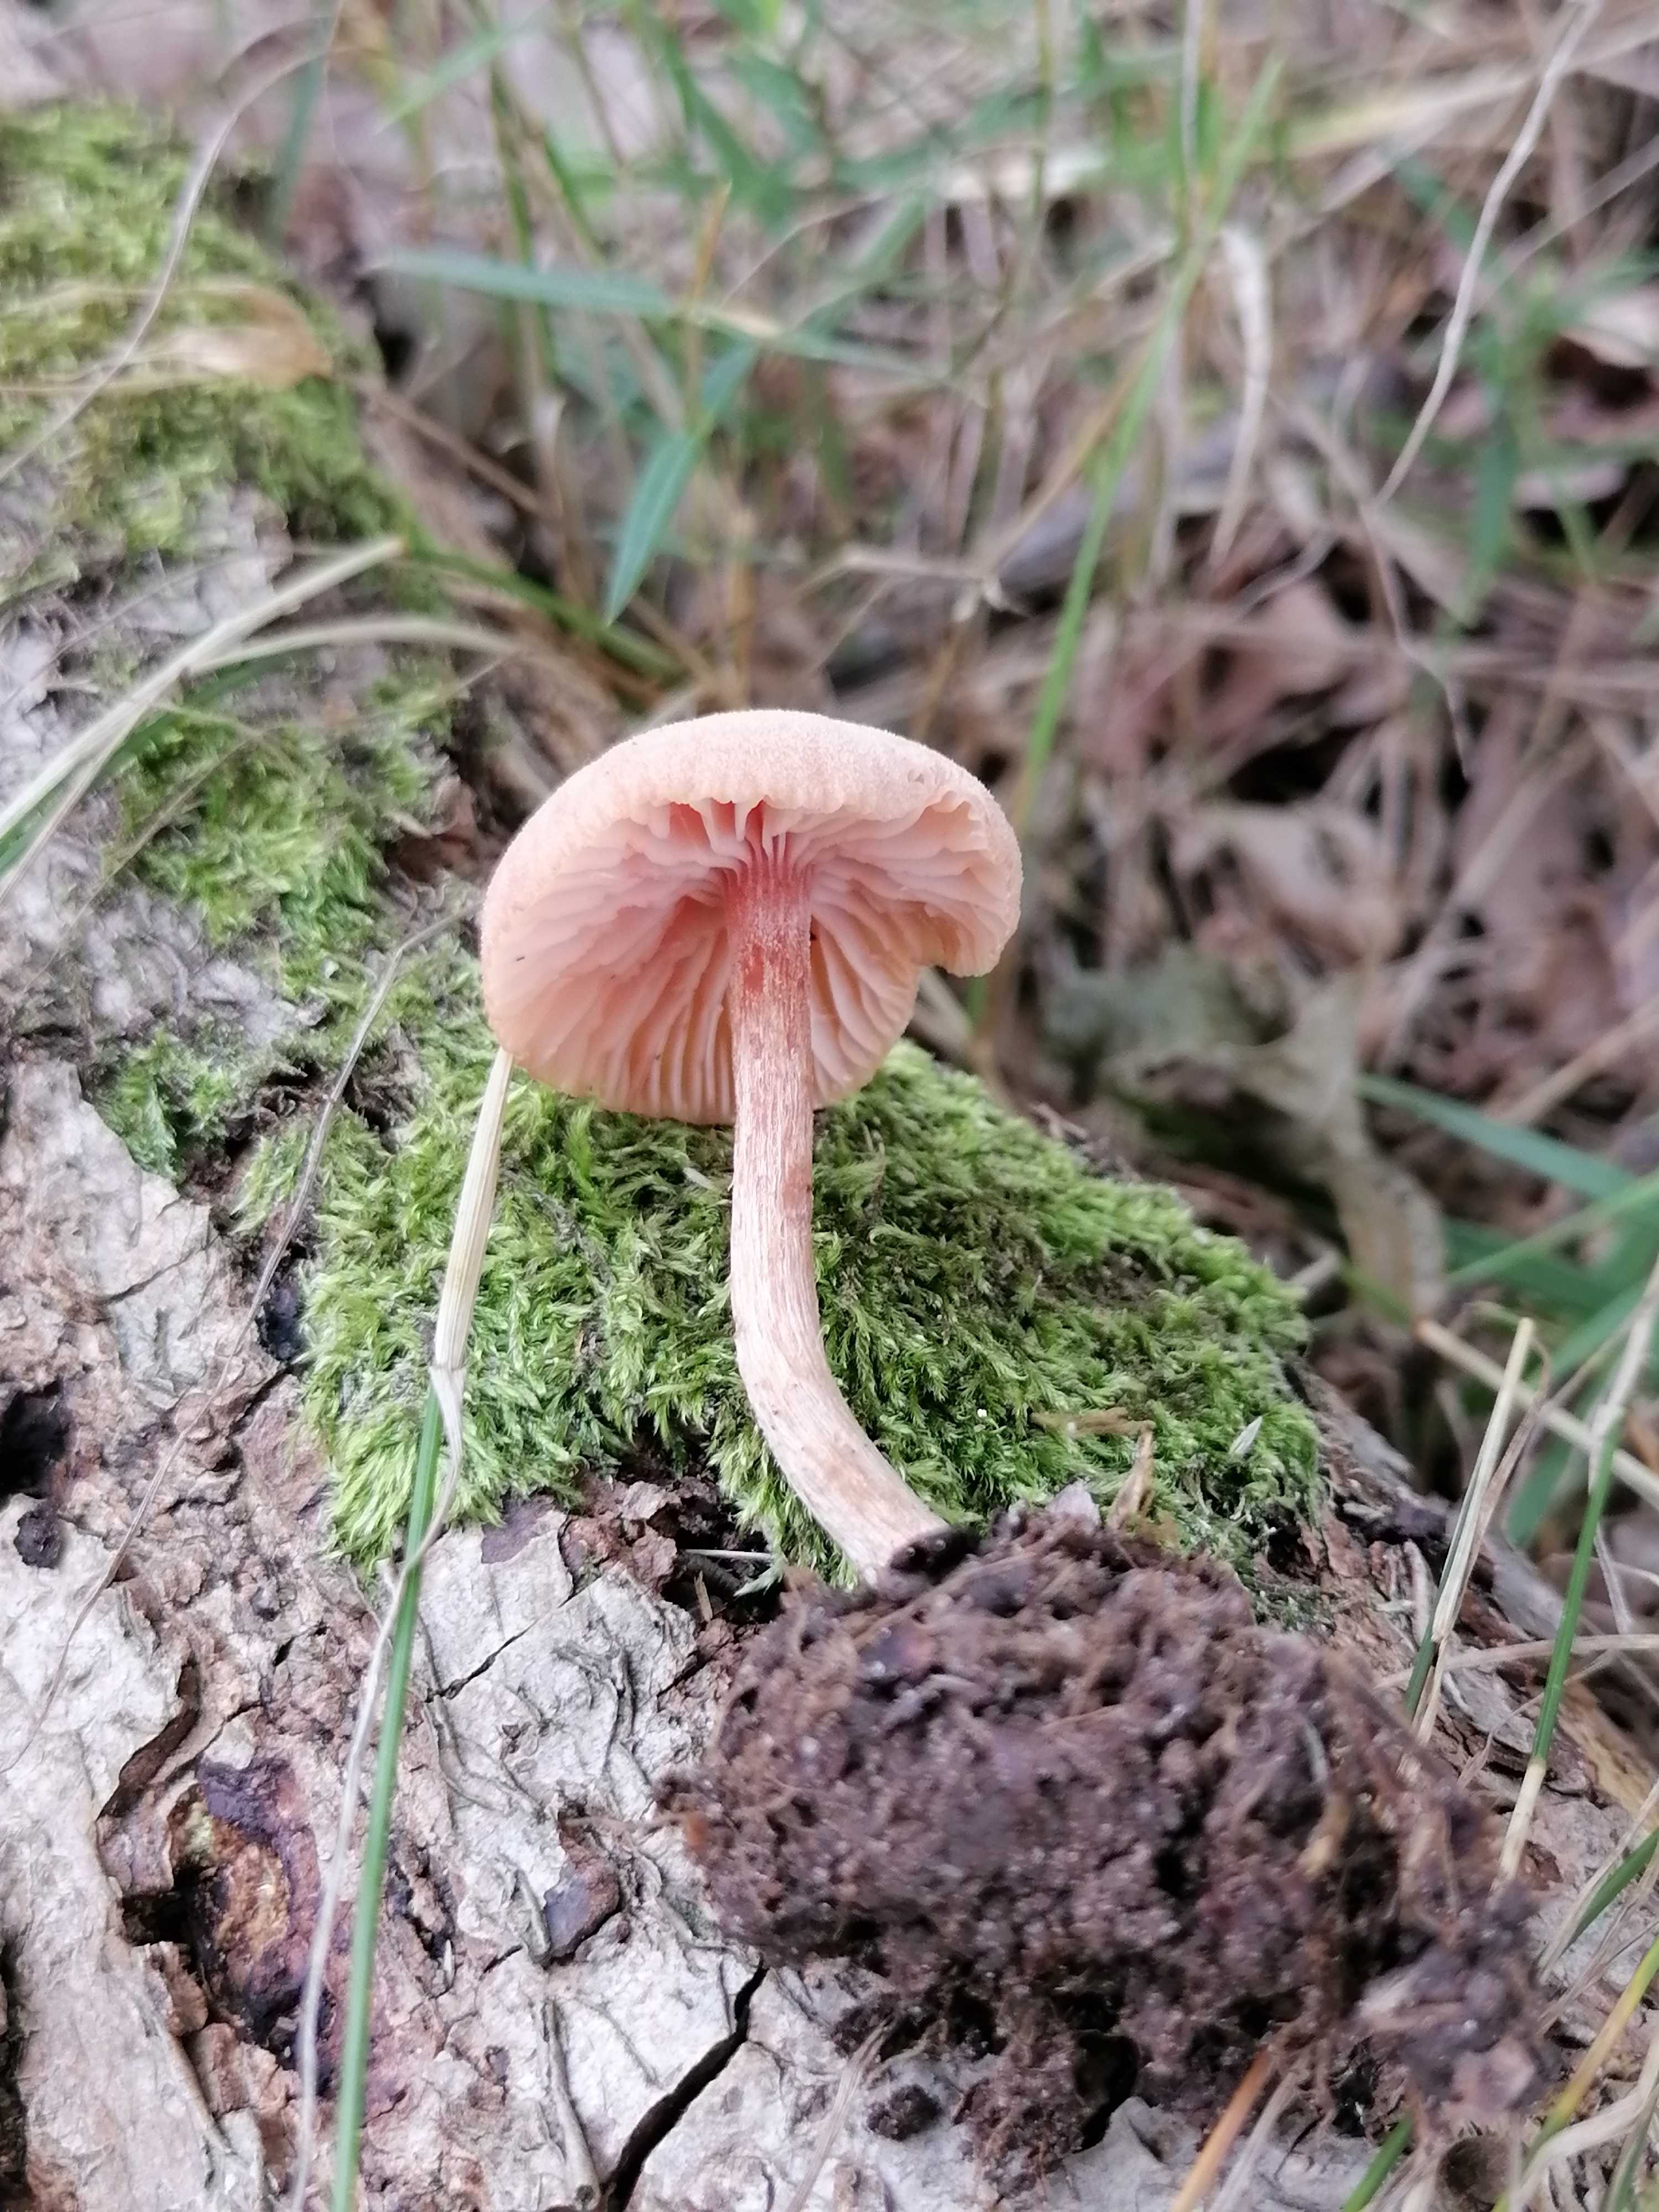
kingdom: Fungi
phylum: Basidiomycota
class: Agaricomycetes
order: Agaricales
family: Hydnangiaceae
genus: Laccaria
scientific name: Laccaria laccata
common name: rød ametysthat
